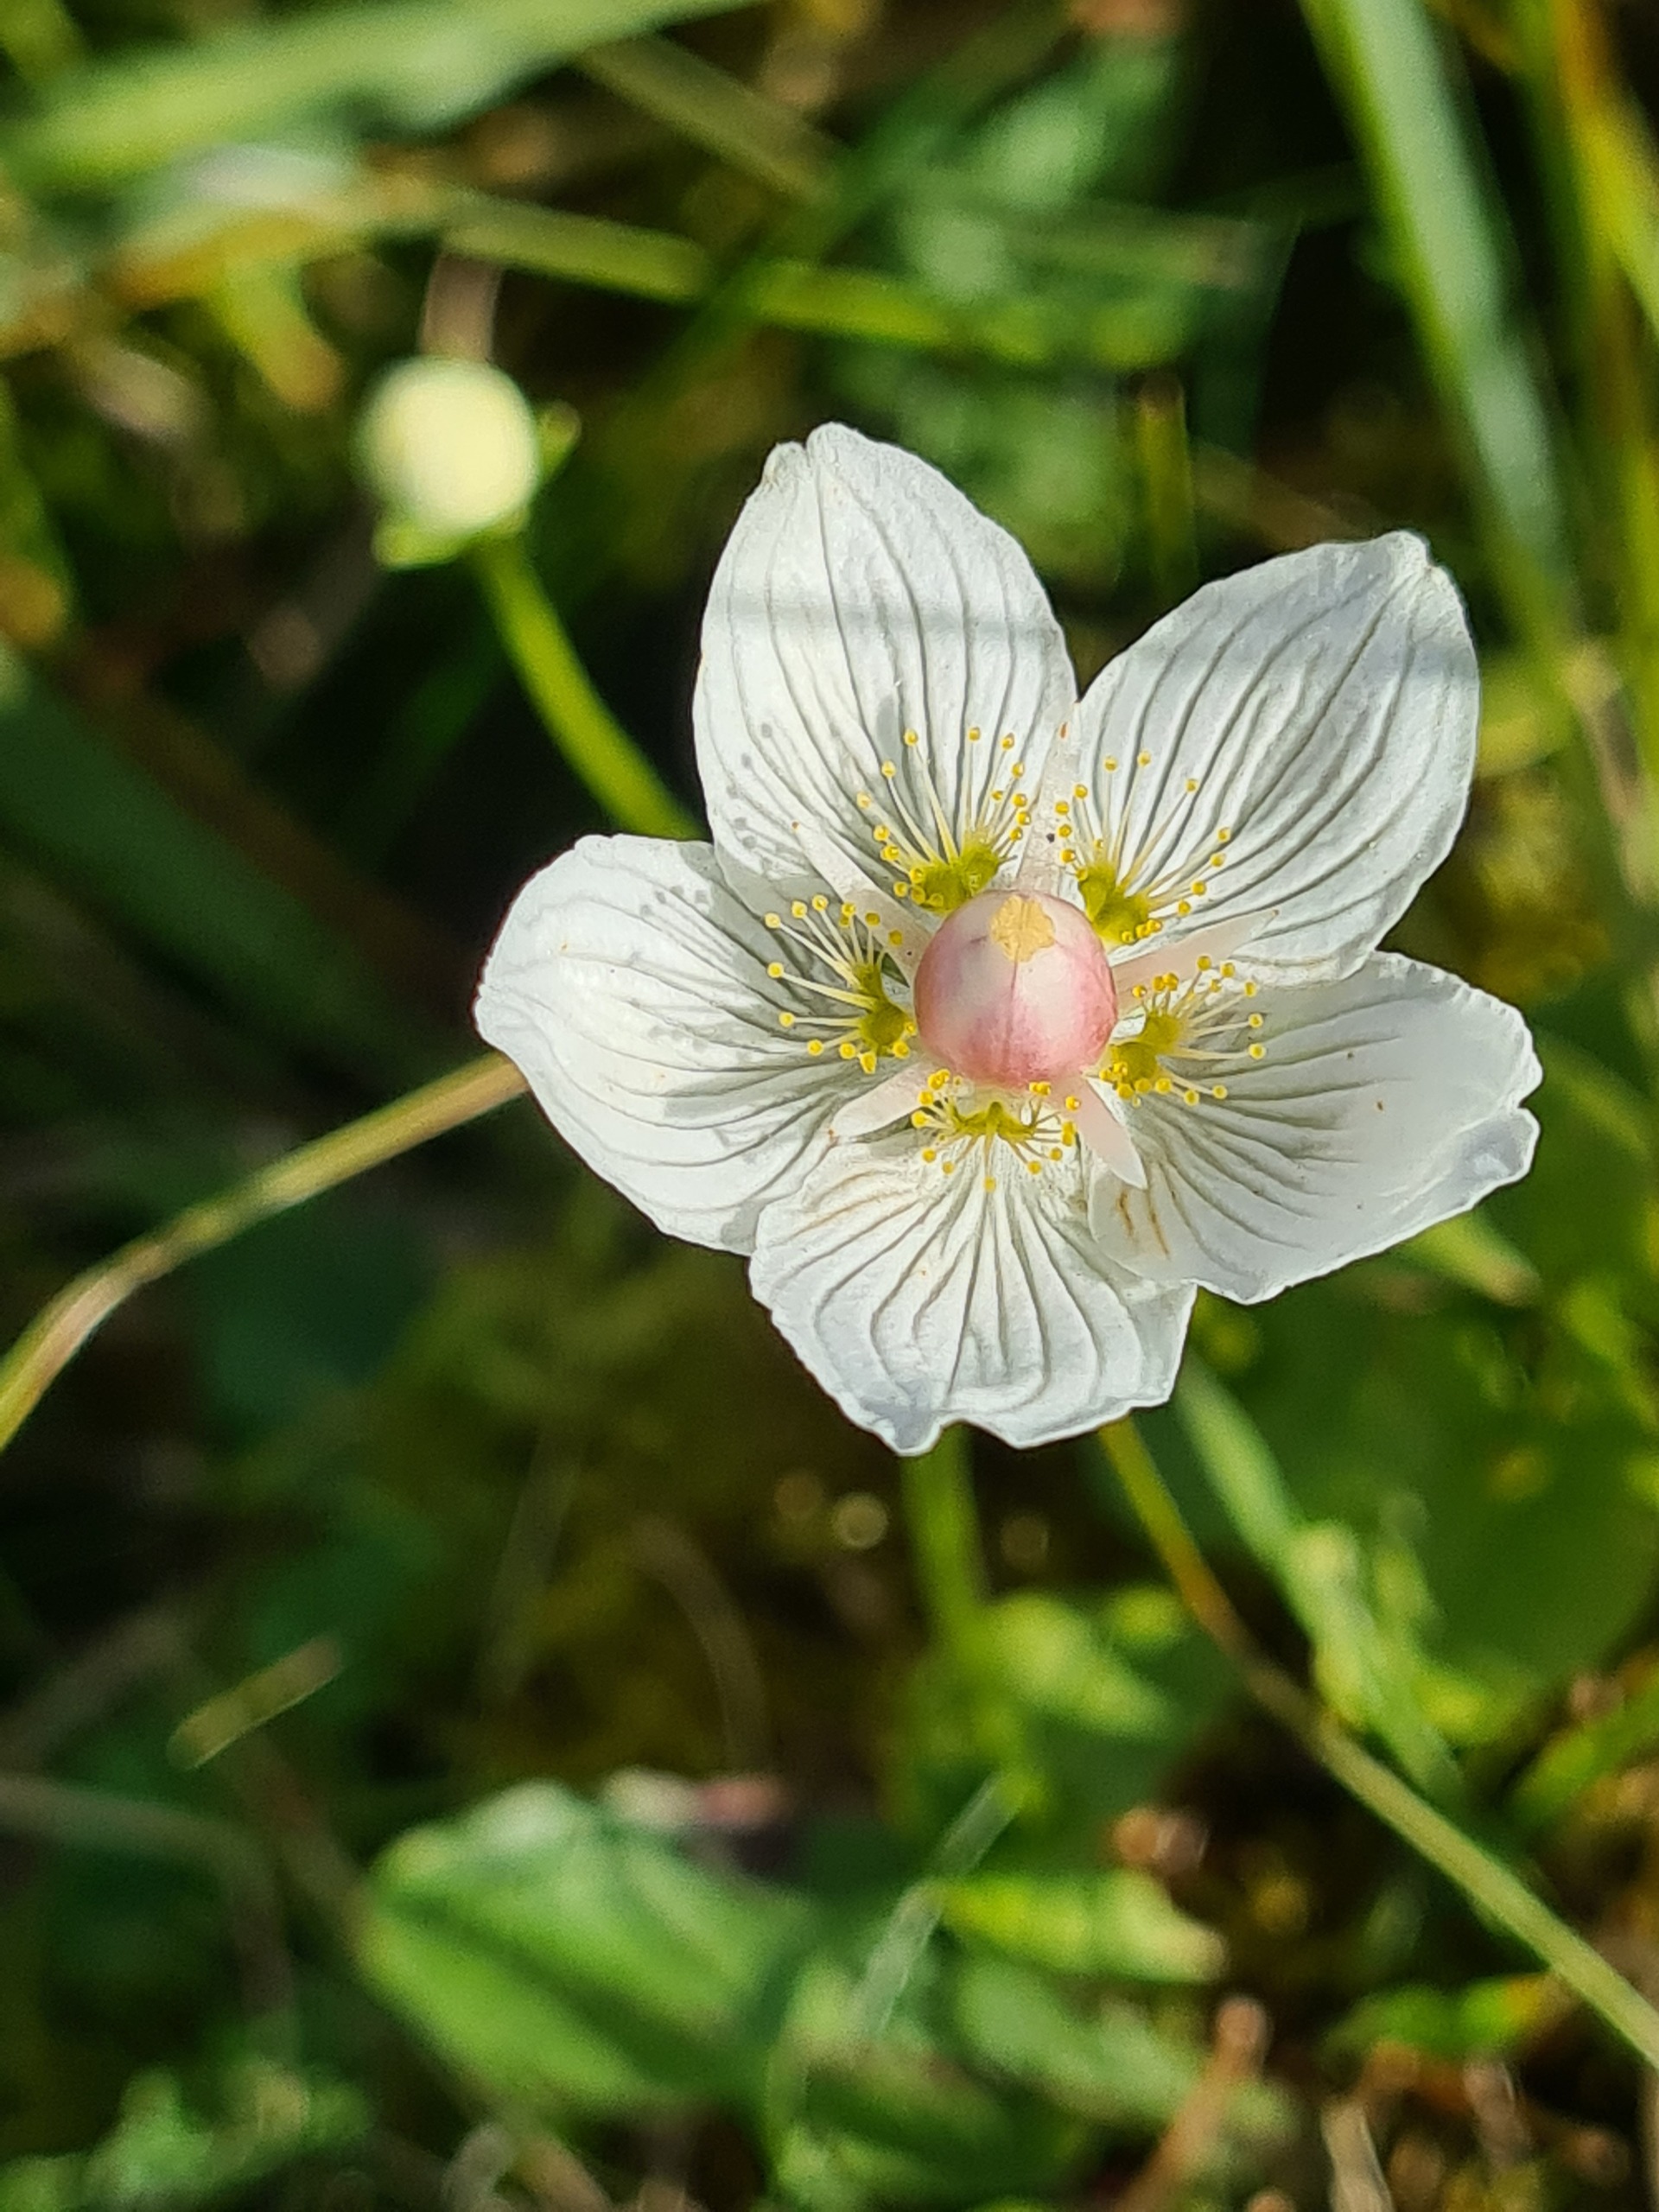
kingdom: Plantae
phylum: Tracheophyta
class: Magnoliopsida
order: Celastrales
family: Parnassiaceae
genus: Parnassia
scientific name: Parnassia palustris
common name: Leverurt
